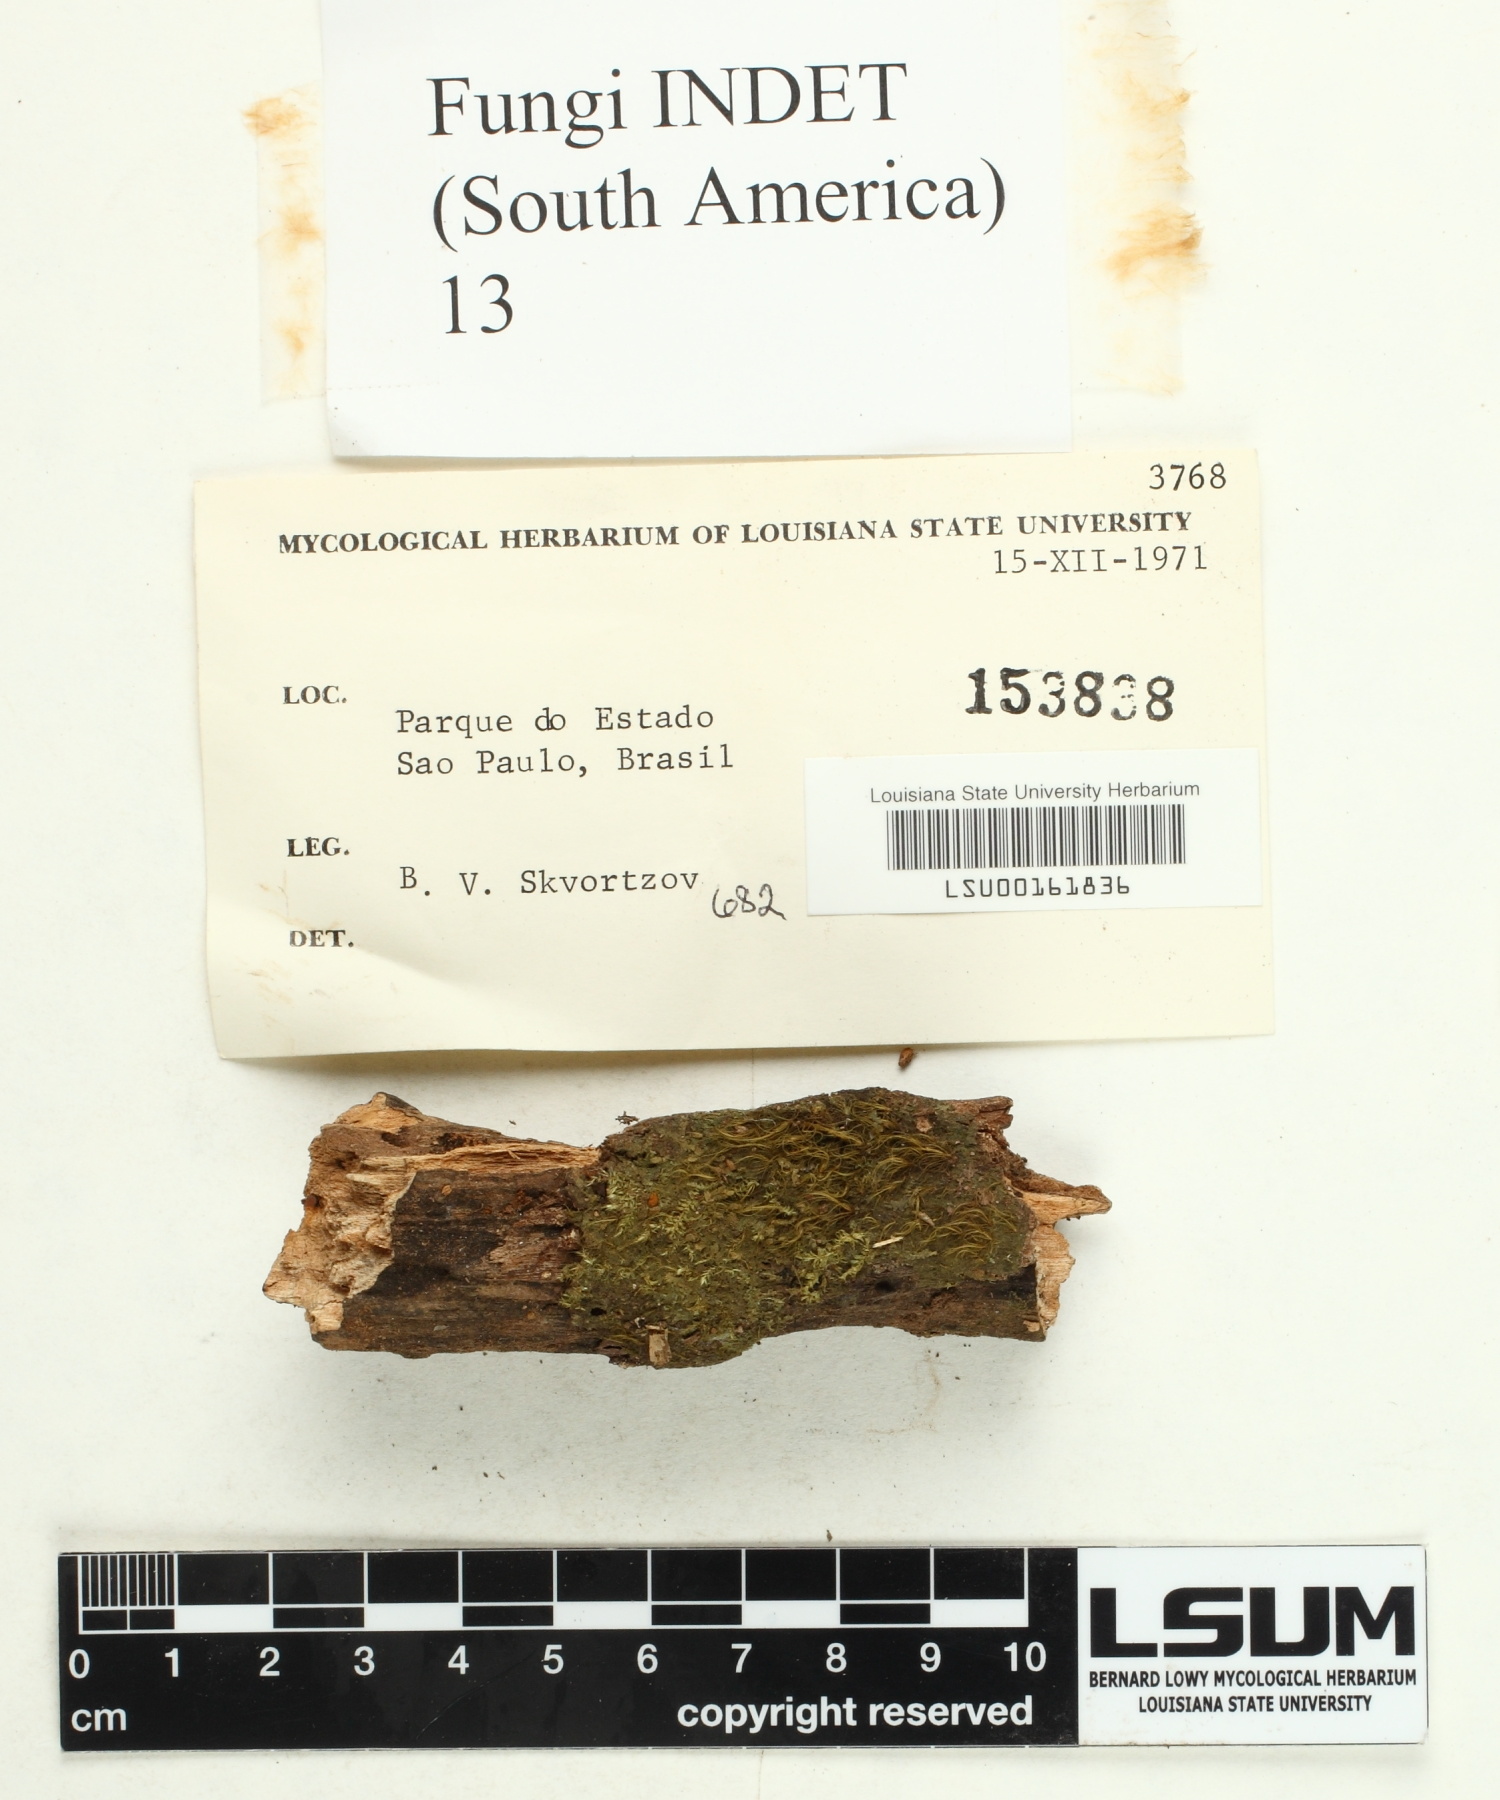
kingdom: Fungi
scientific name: Fungi
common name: Fungi
